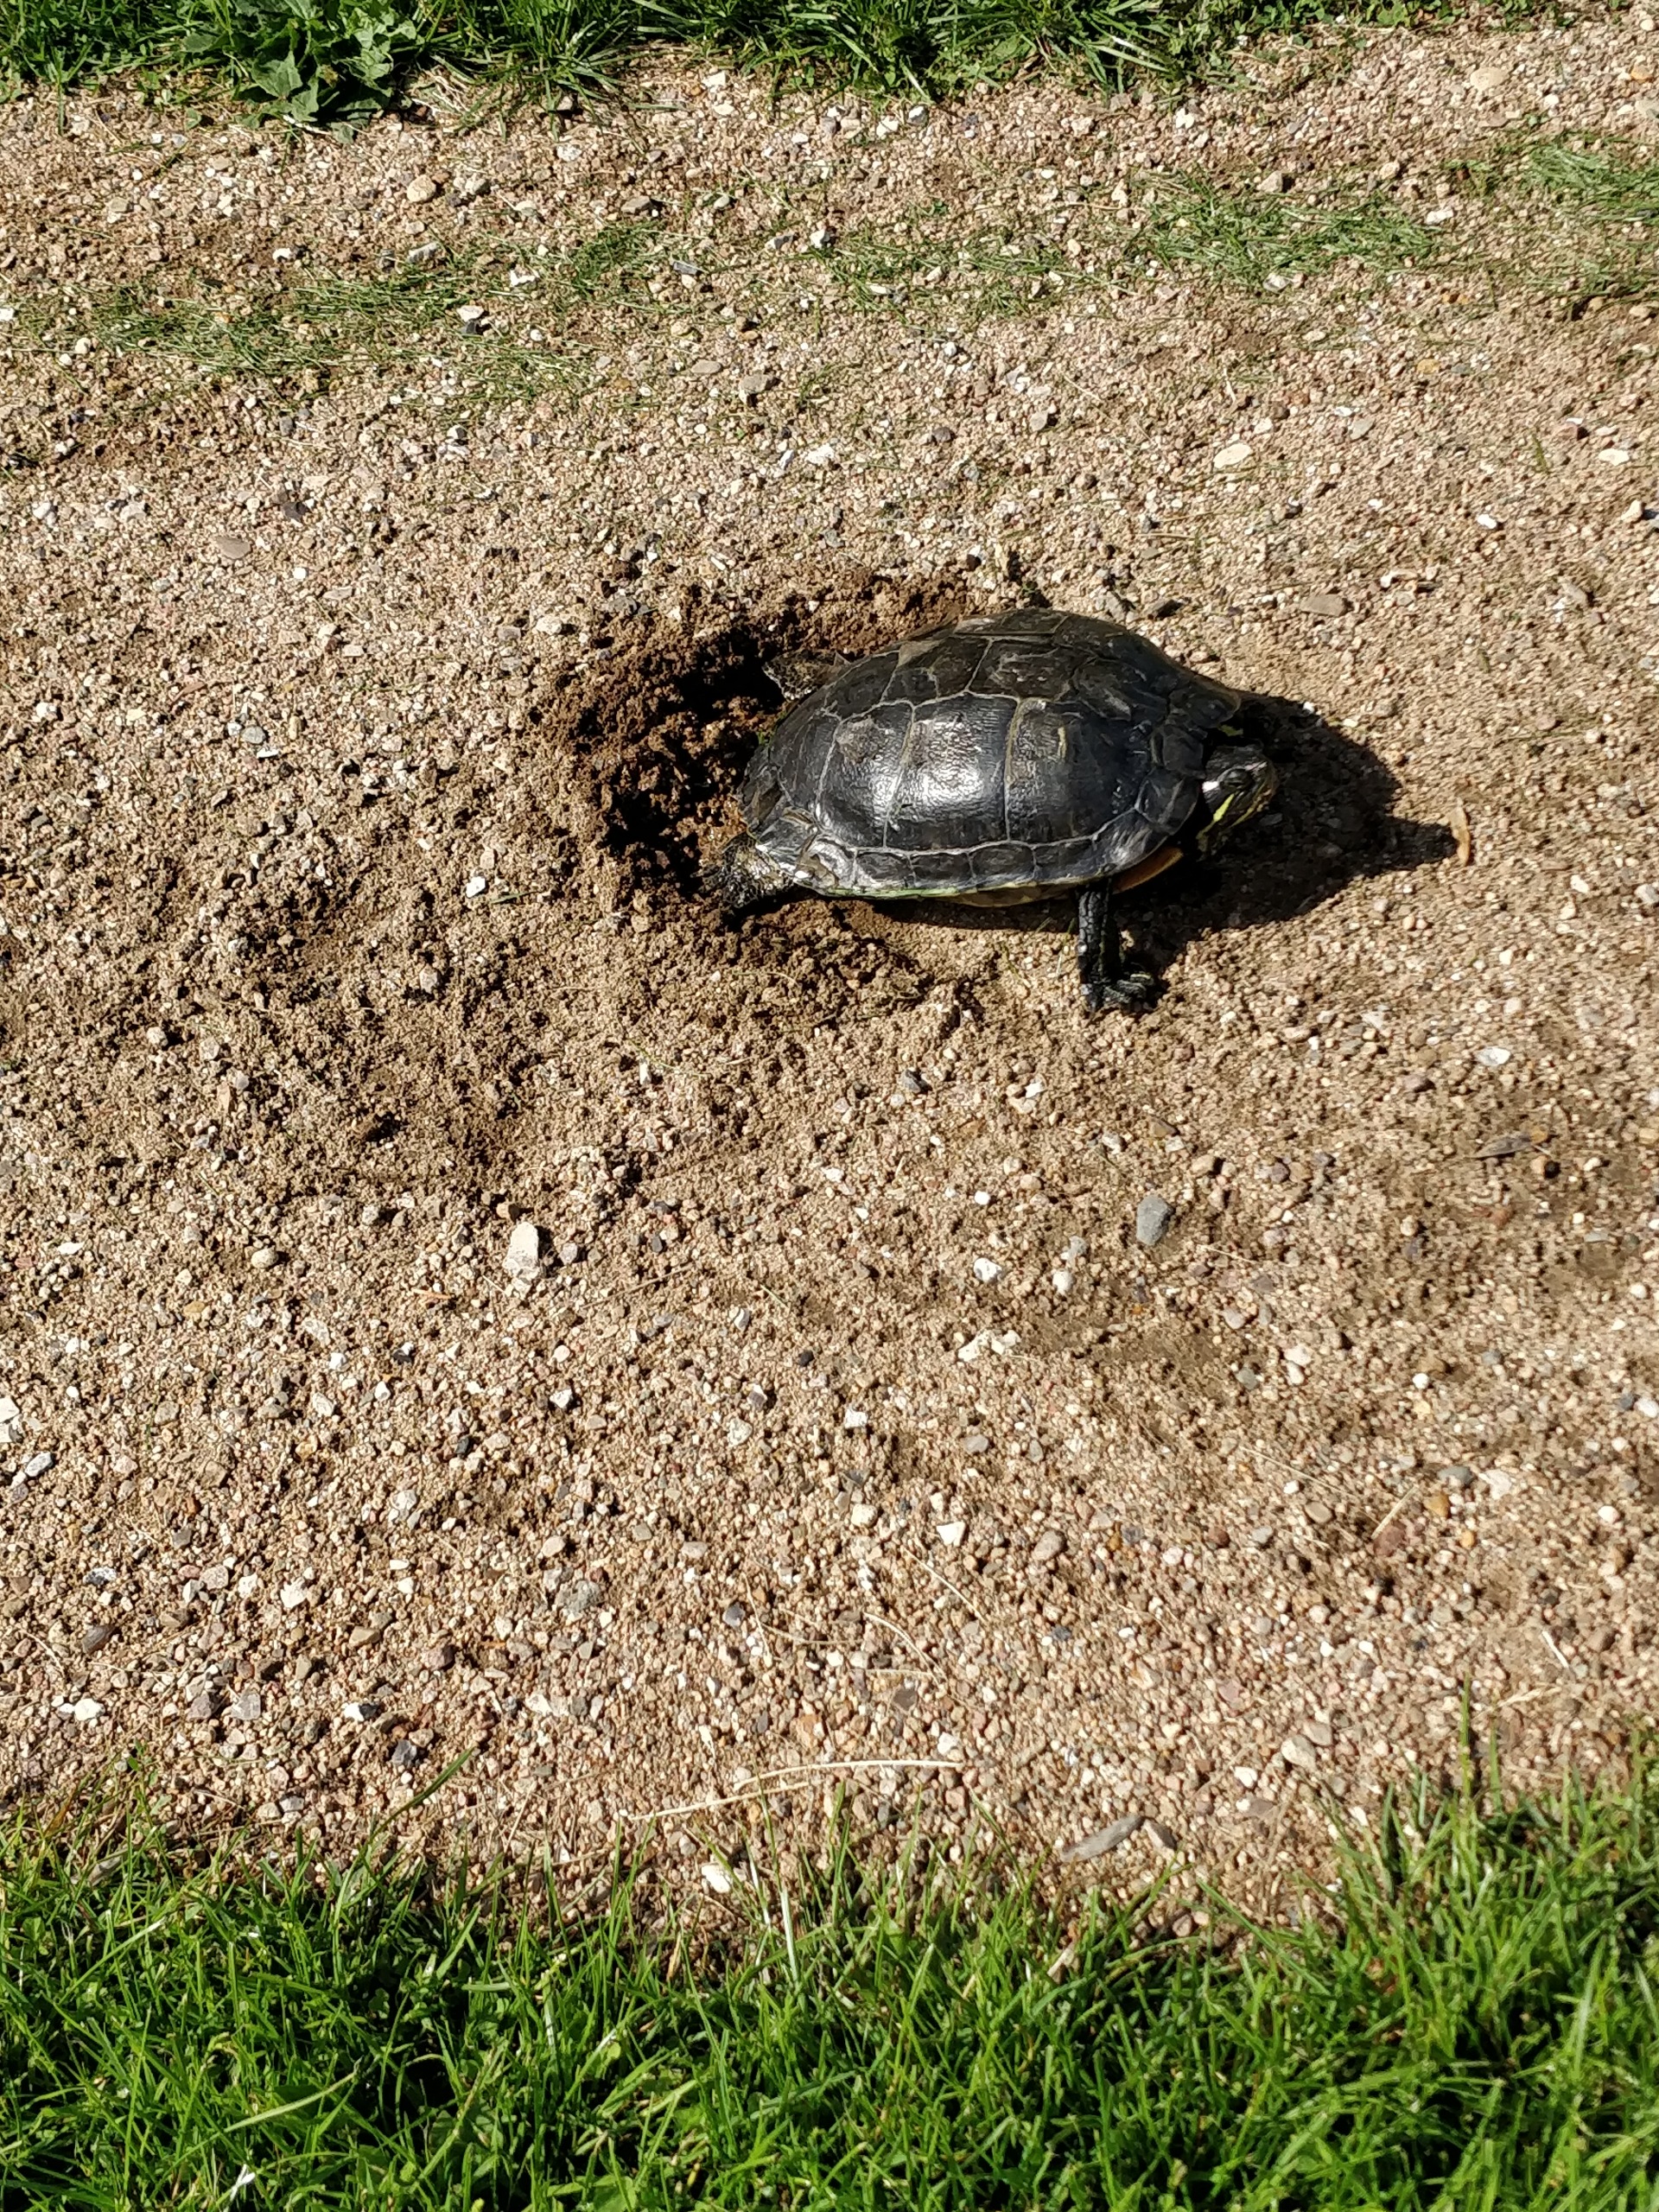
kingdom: Animalia
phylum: Chordata
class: Testudines
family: Emydidae
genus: Trachemys
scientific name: Trachemys scripta
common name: Rødøret terrapin
